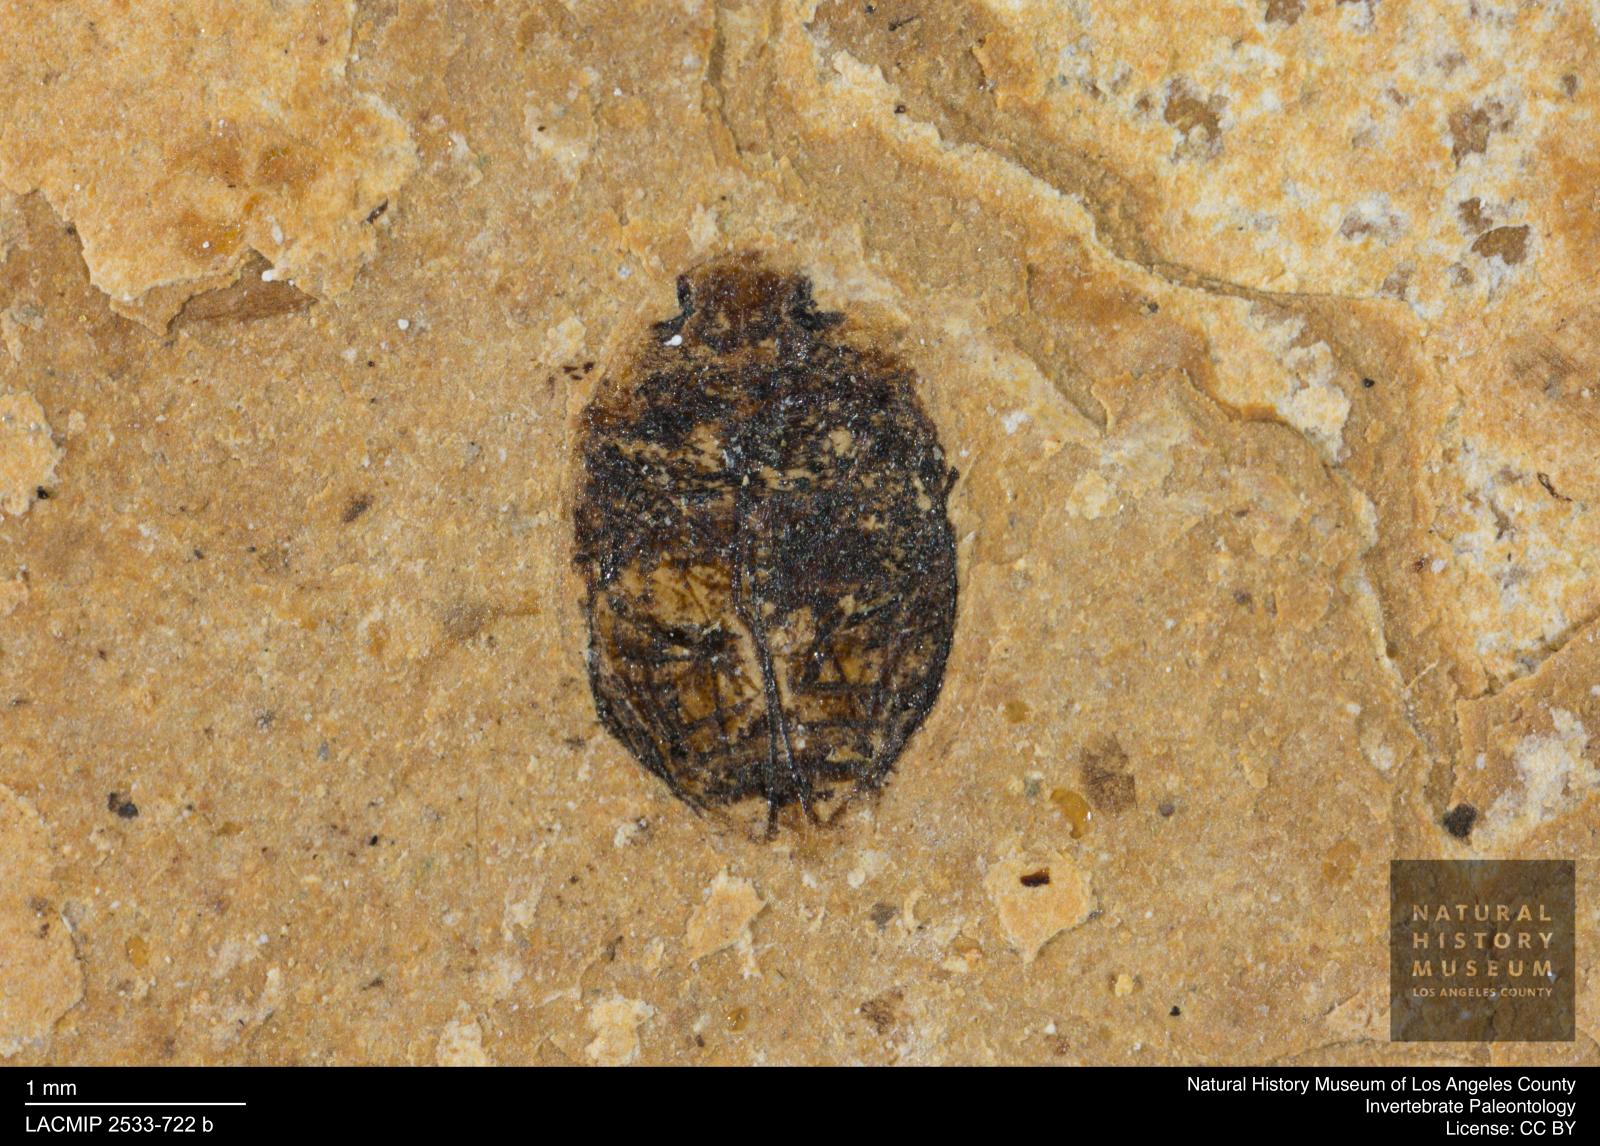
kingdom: Animalia
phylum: Arthropoda
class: Insecta
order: Coleoptera
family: Dytiscidae
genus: Oreodytes
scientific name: Oreodytes cryptolineatus
